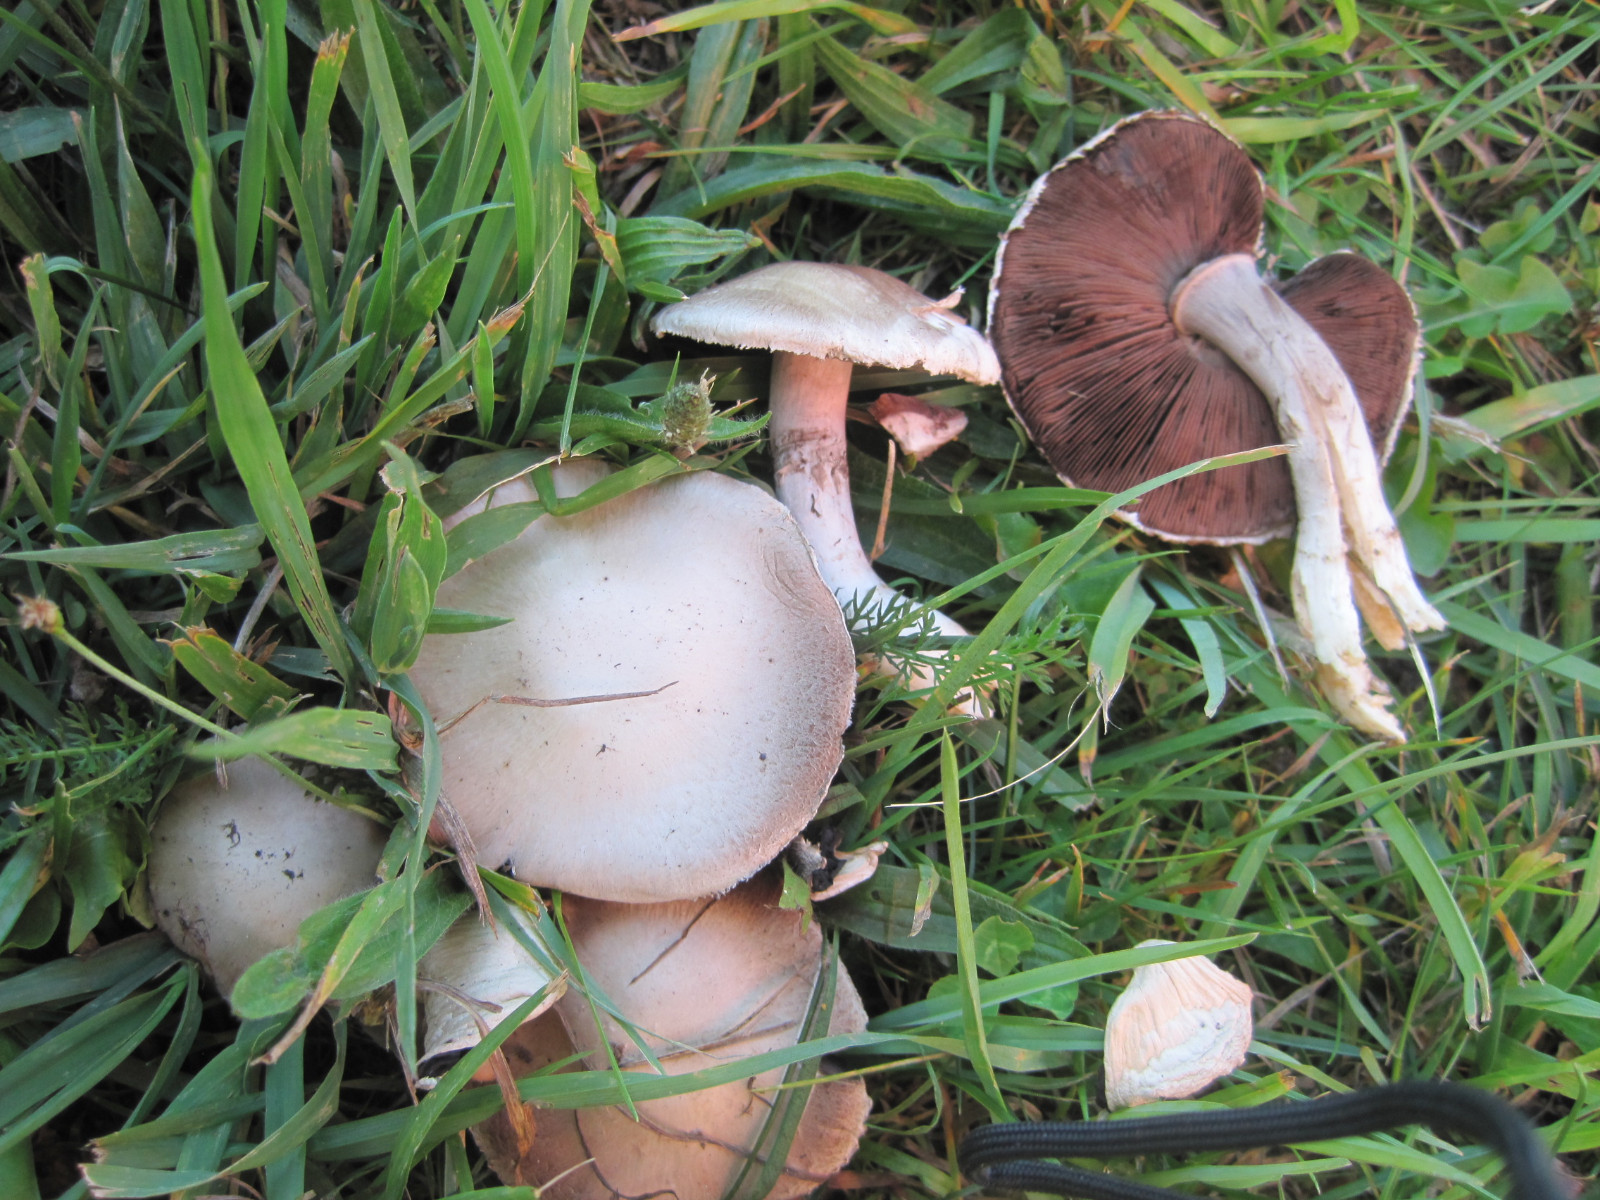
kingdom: Fungi
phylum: Basidiomycota
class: Agaricomycetes
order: Agaricales
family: Agaricaceae
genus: Agaricus
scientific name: Agaricus campestris
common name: mark-champignon
